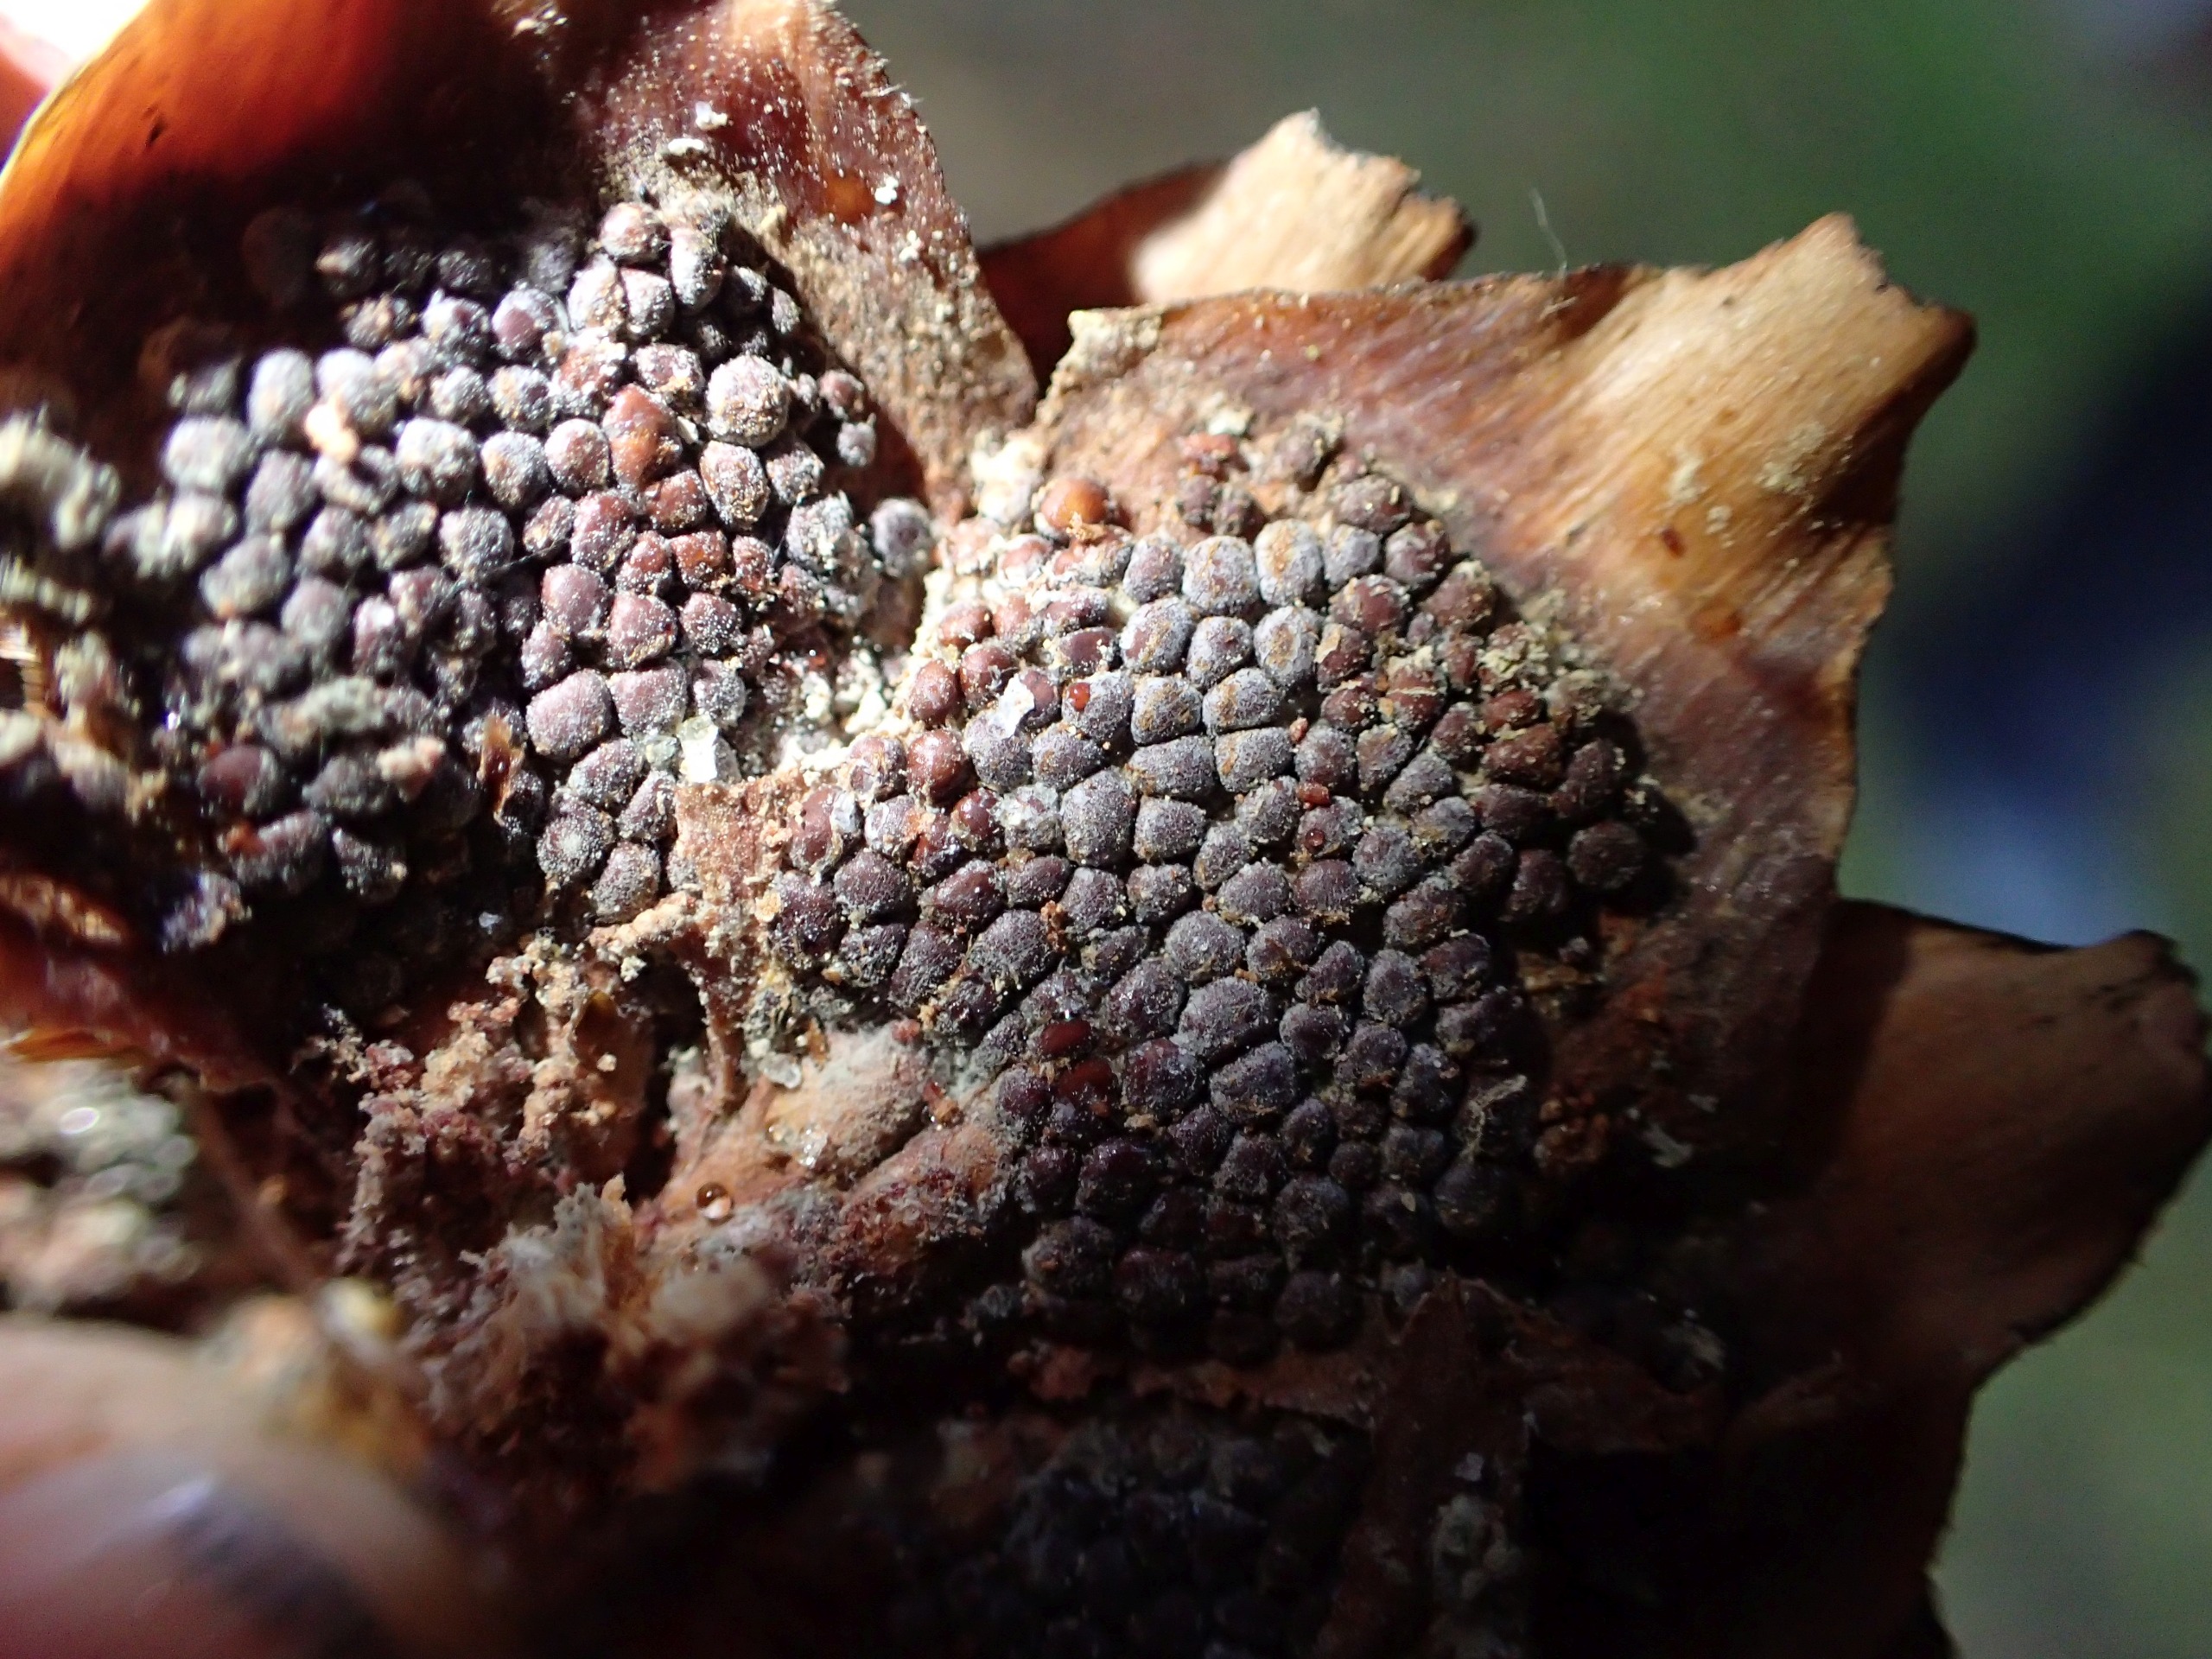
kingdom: Fungi
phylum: Basidiomycota
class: Pucciniomycetes
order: Pucciniales
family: Pucciniastraceae
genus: Thekopsora
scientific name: Thekopsora areolata
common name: Grankogle-nålerust
